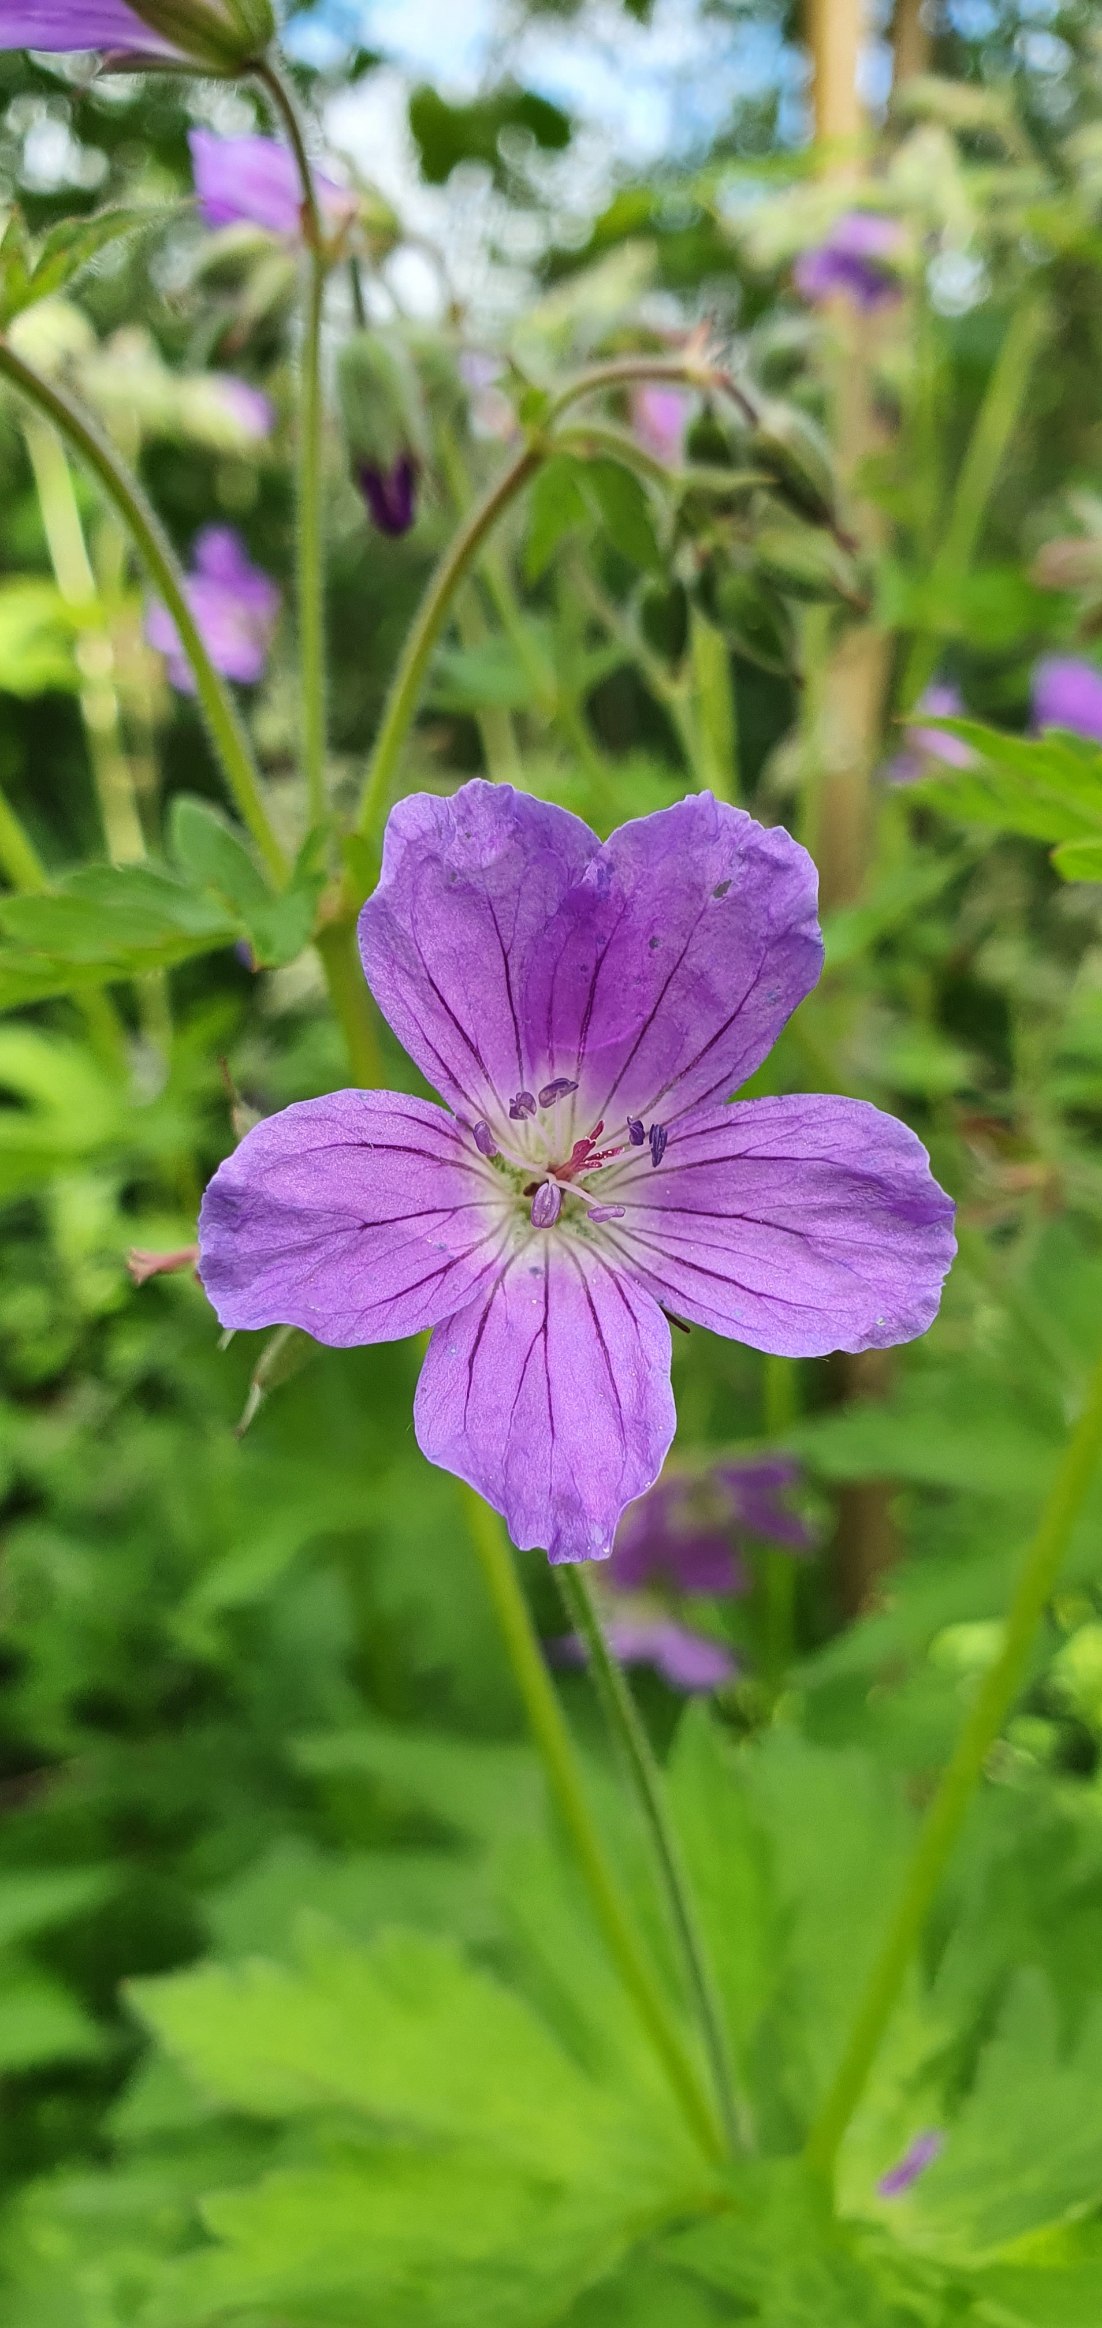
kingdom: Plantae
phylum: Tracheophyta
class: Magnoliopsida
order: Geraniales
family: Geraniaceae
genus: Geranium
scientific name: Geranium sylvaticum
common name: Skov-storkenæb
